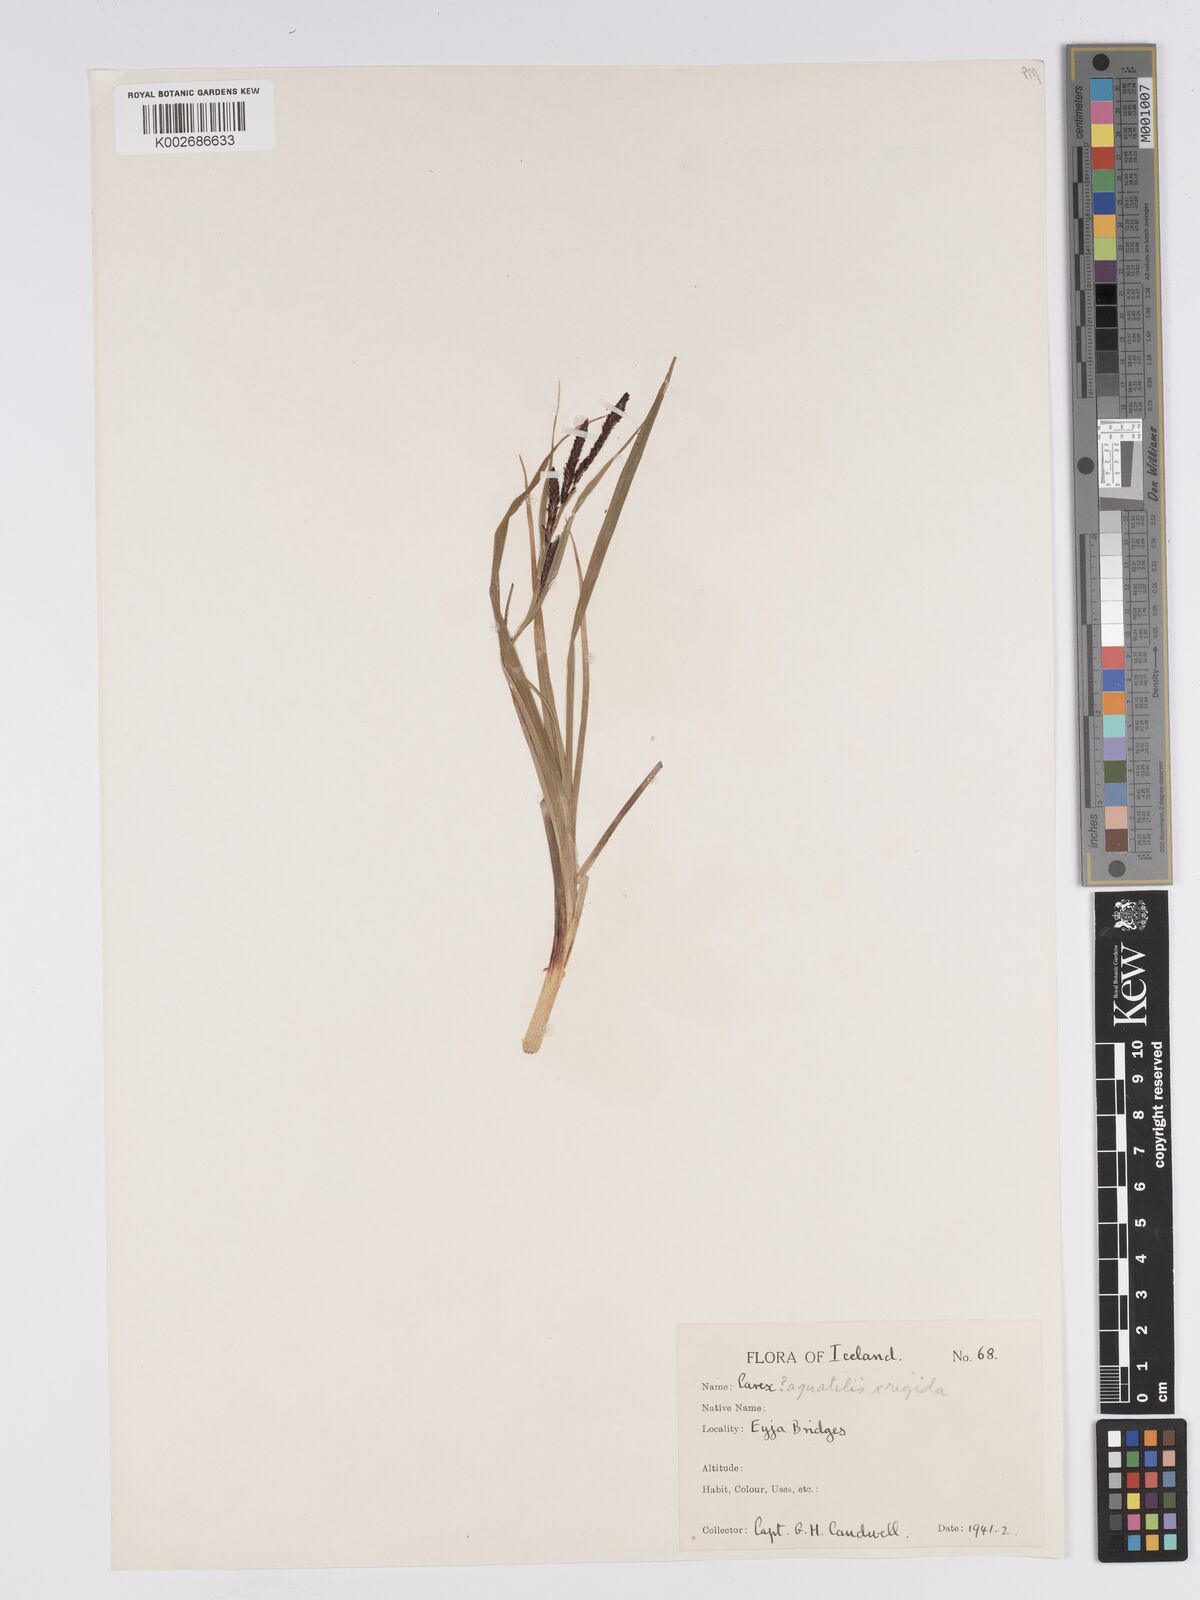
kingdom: Plantae
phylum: Tracheophyta
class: Liliopsida
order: Poales
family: Cyperaceae
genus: Carex
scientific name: Carex aquatilis
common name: Water sedge
